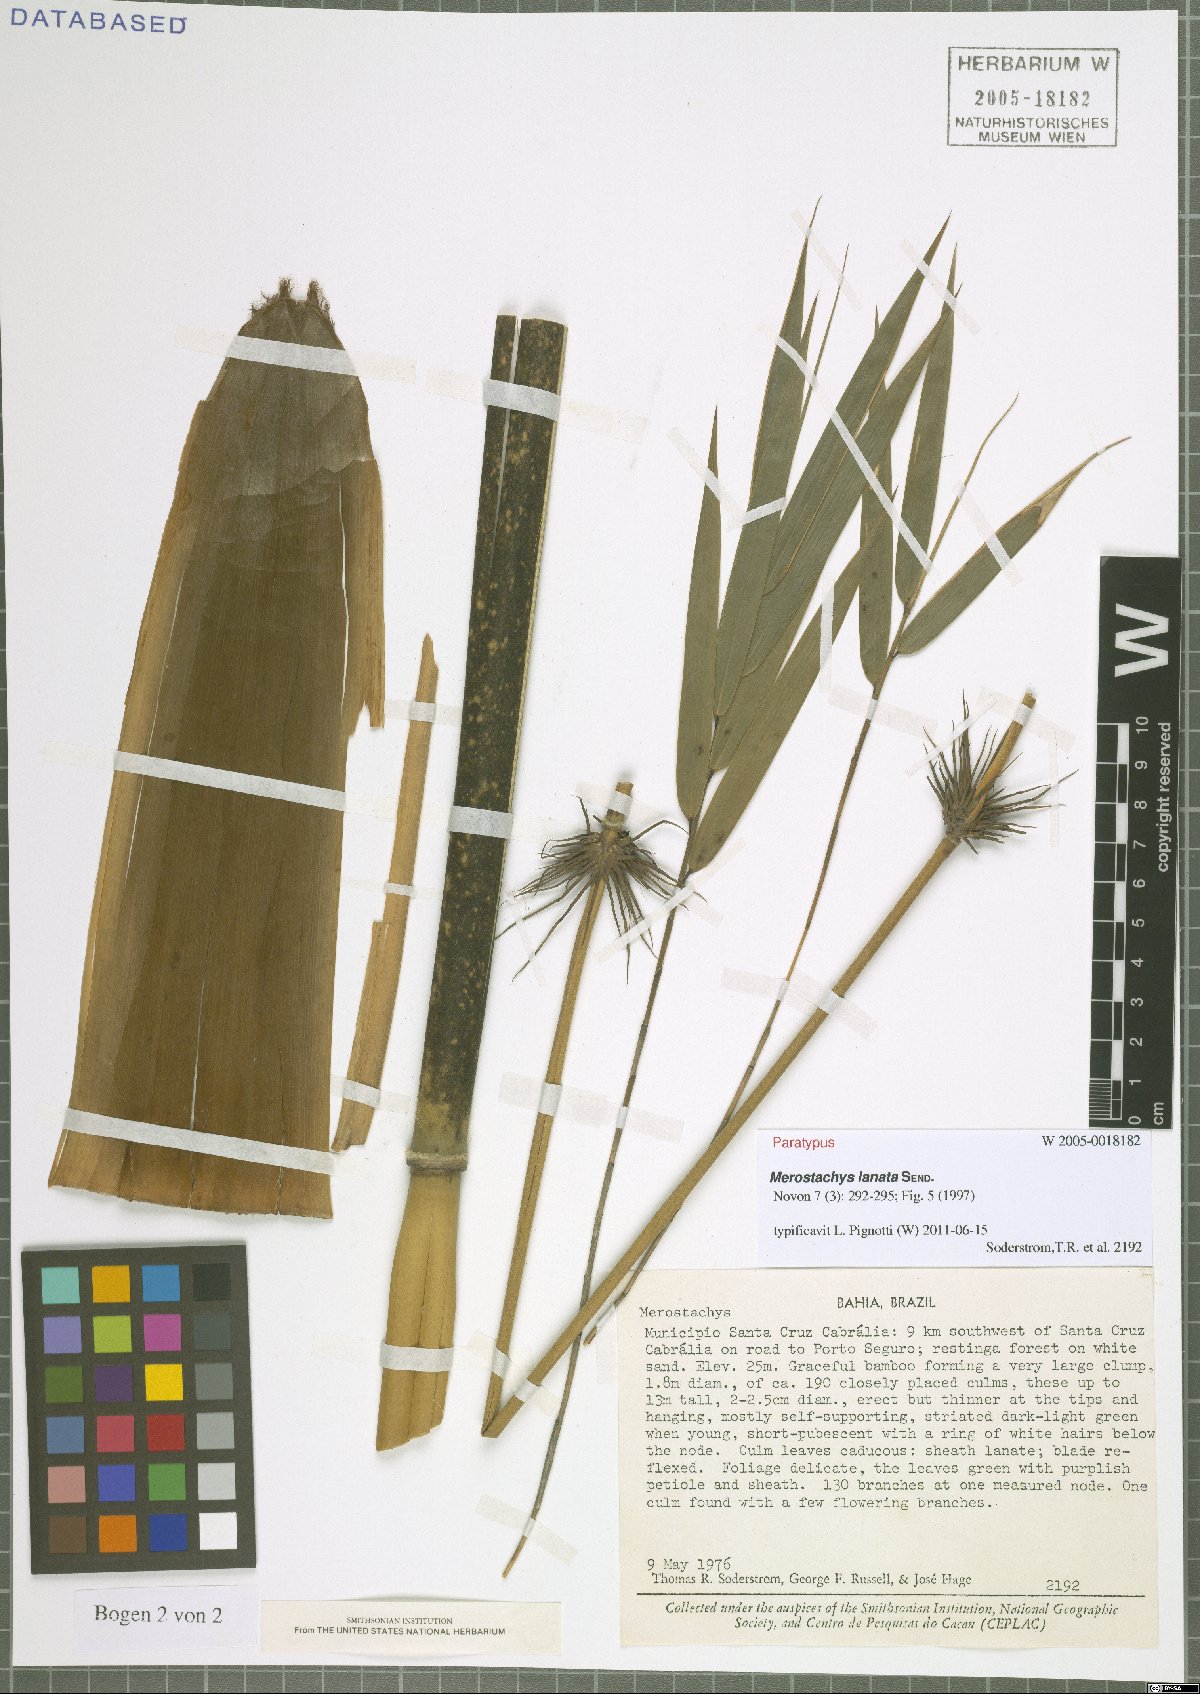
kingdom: Plantae
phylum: Tracheophyta
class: Liliopsida
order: Poales
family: Poaceae
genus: Merostachys
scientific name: Merostachys lanata
